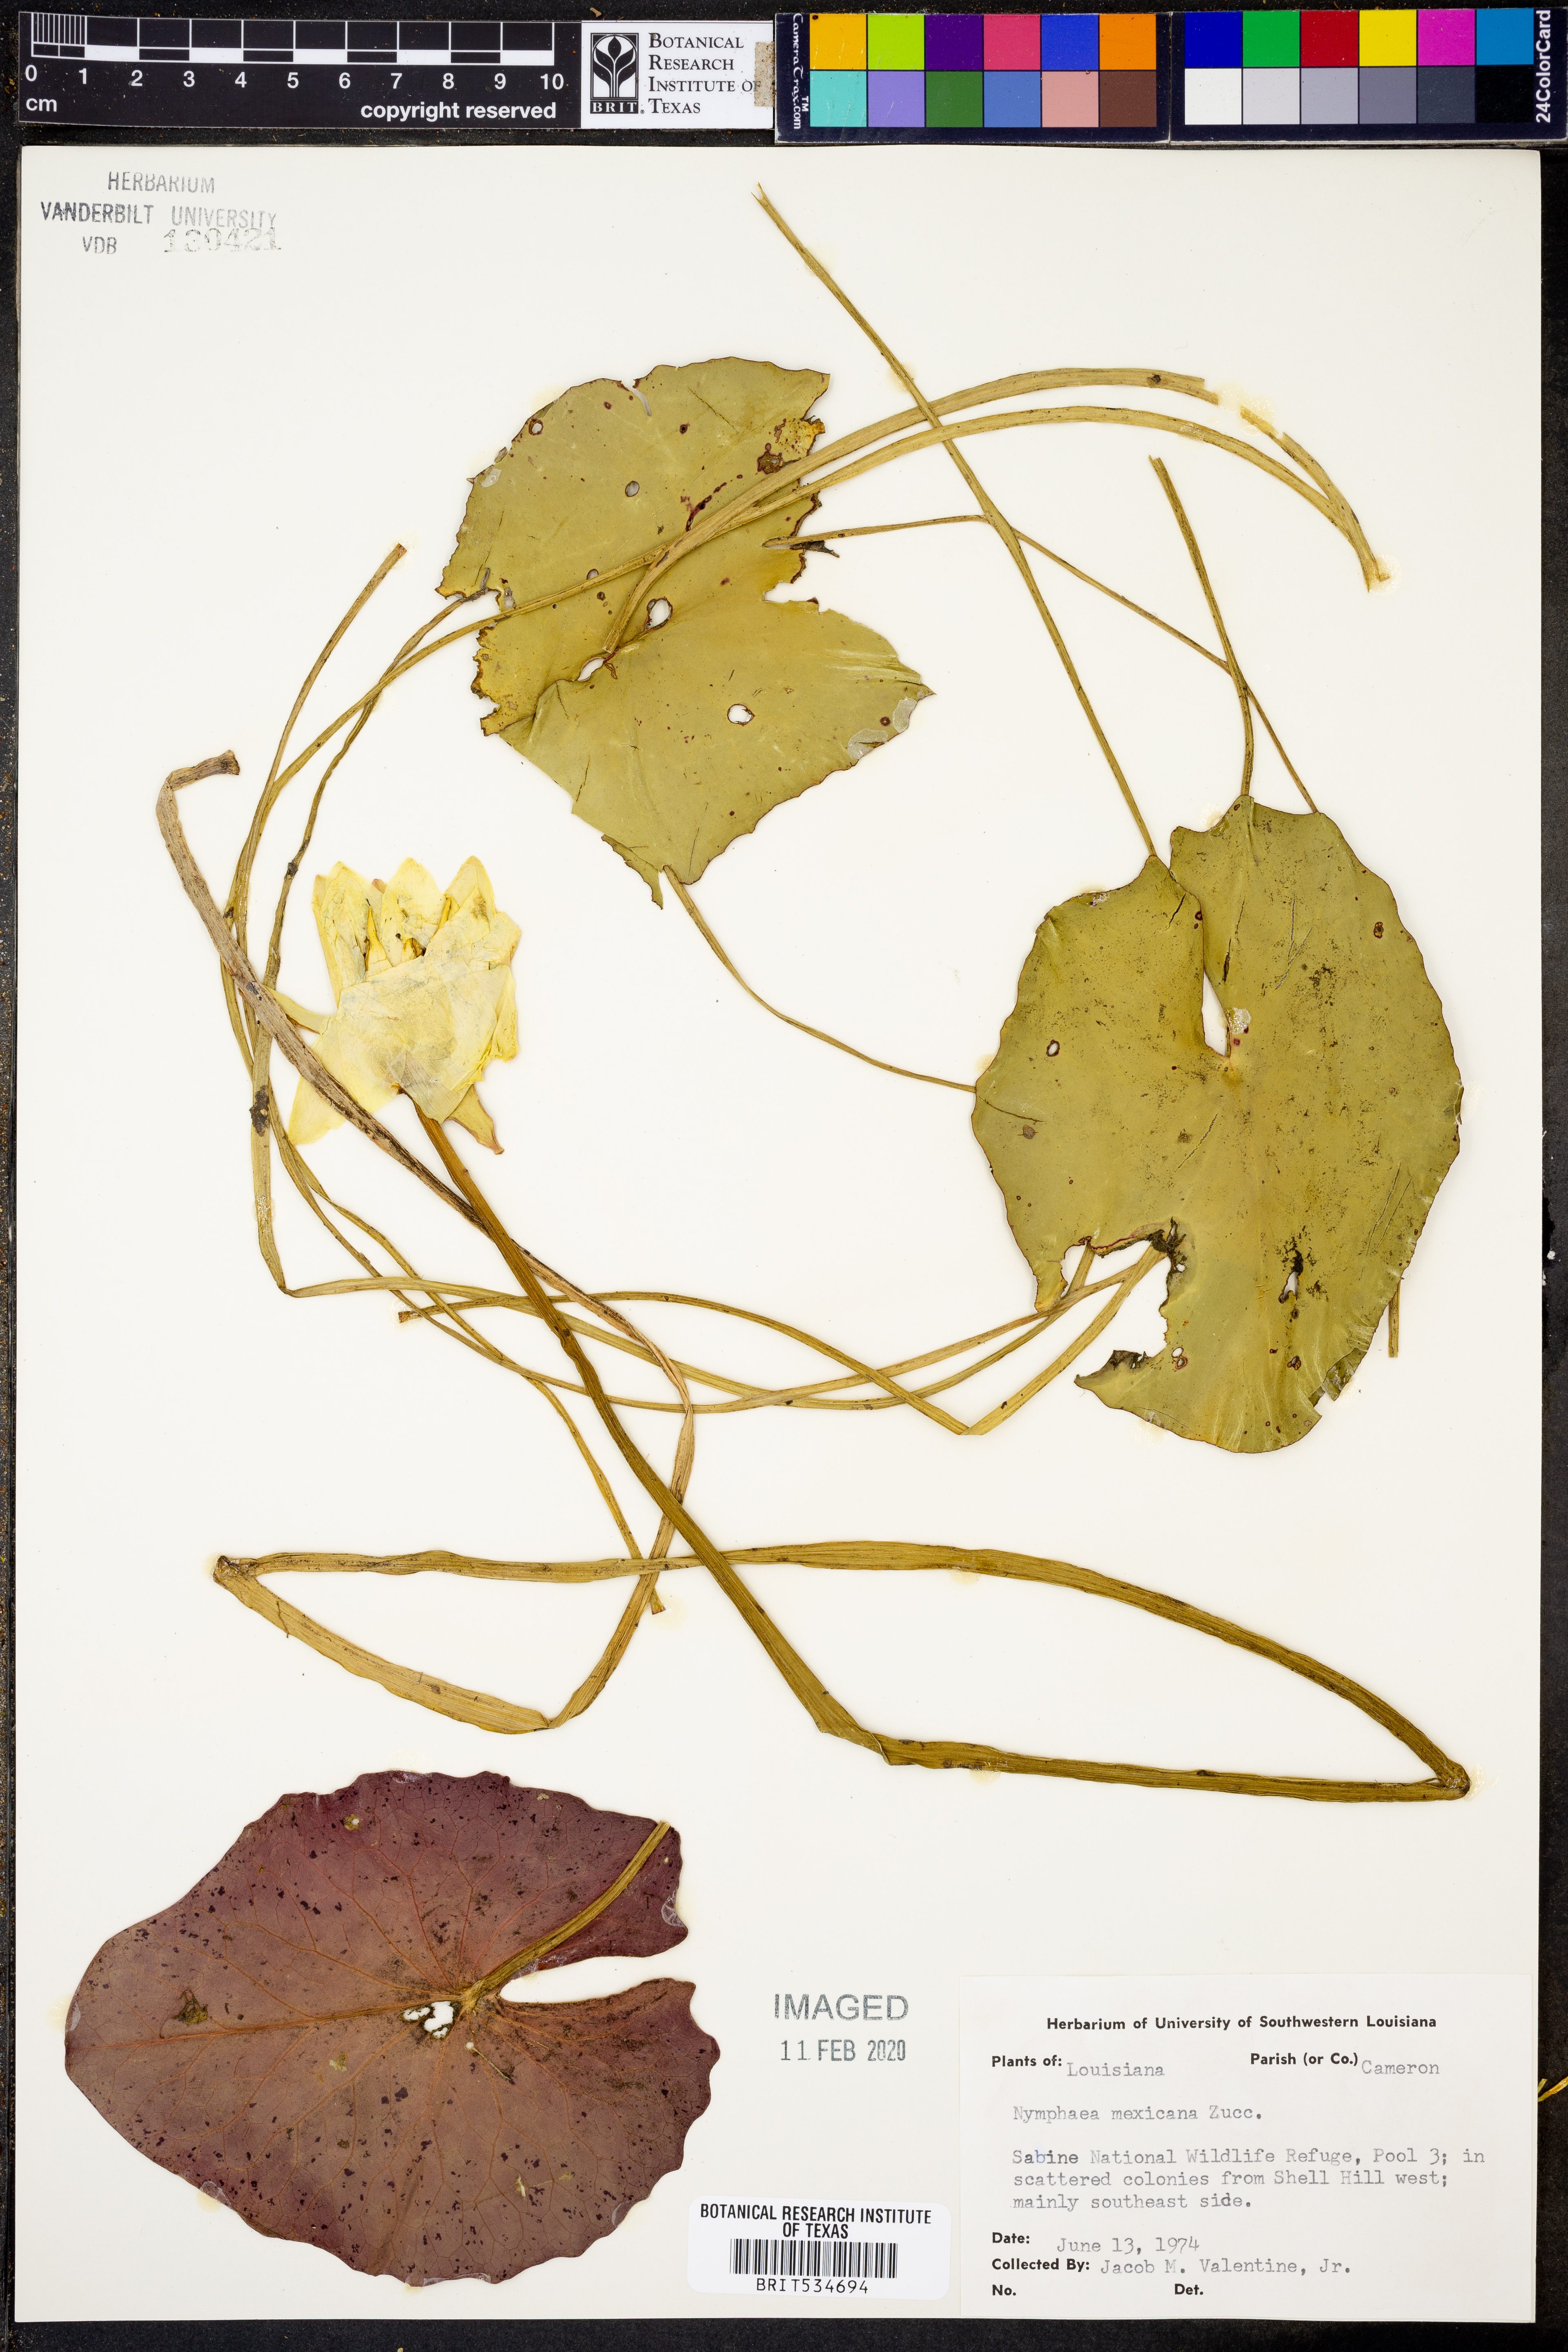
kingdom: Plantae
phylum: Tracheophyta
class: Magnoliopsida
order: Nymphaeales
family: Nymphaeaceae
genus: Nymphaea
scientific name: Nymphaea mexicana
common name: Banana water-lily
